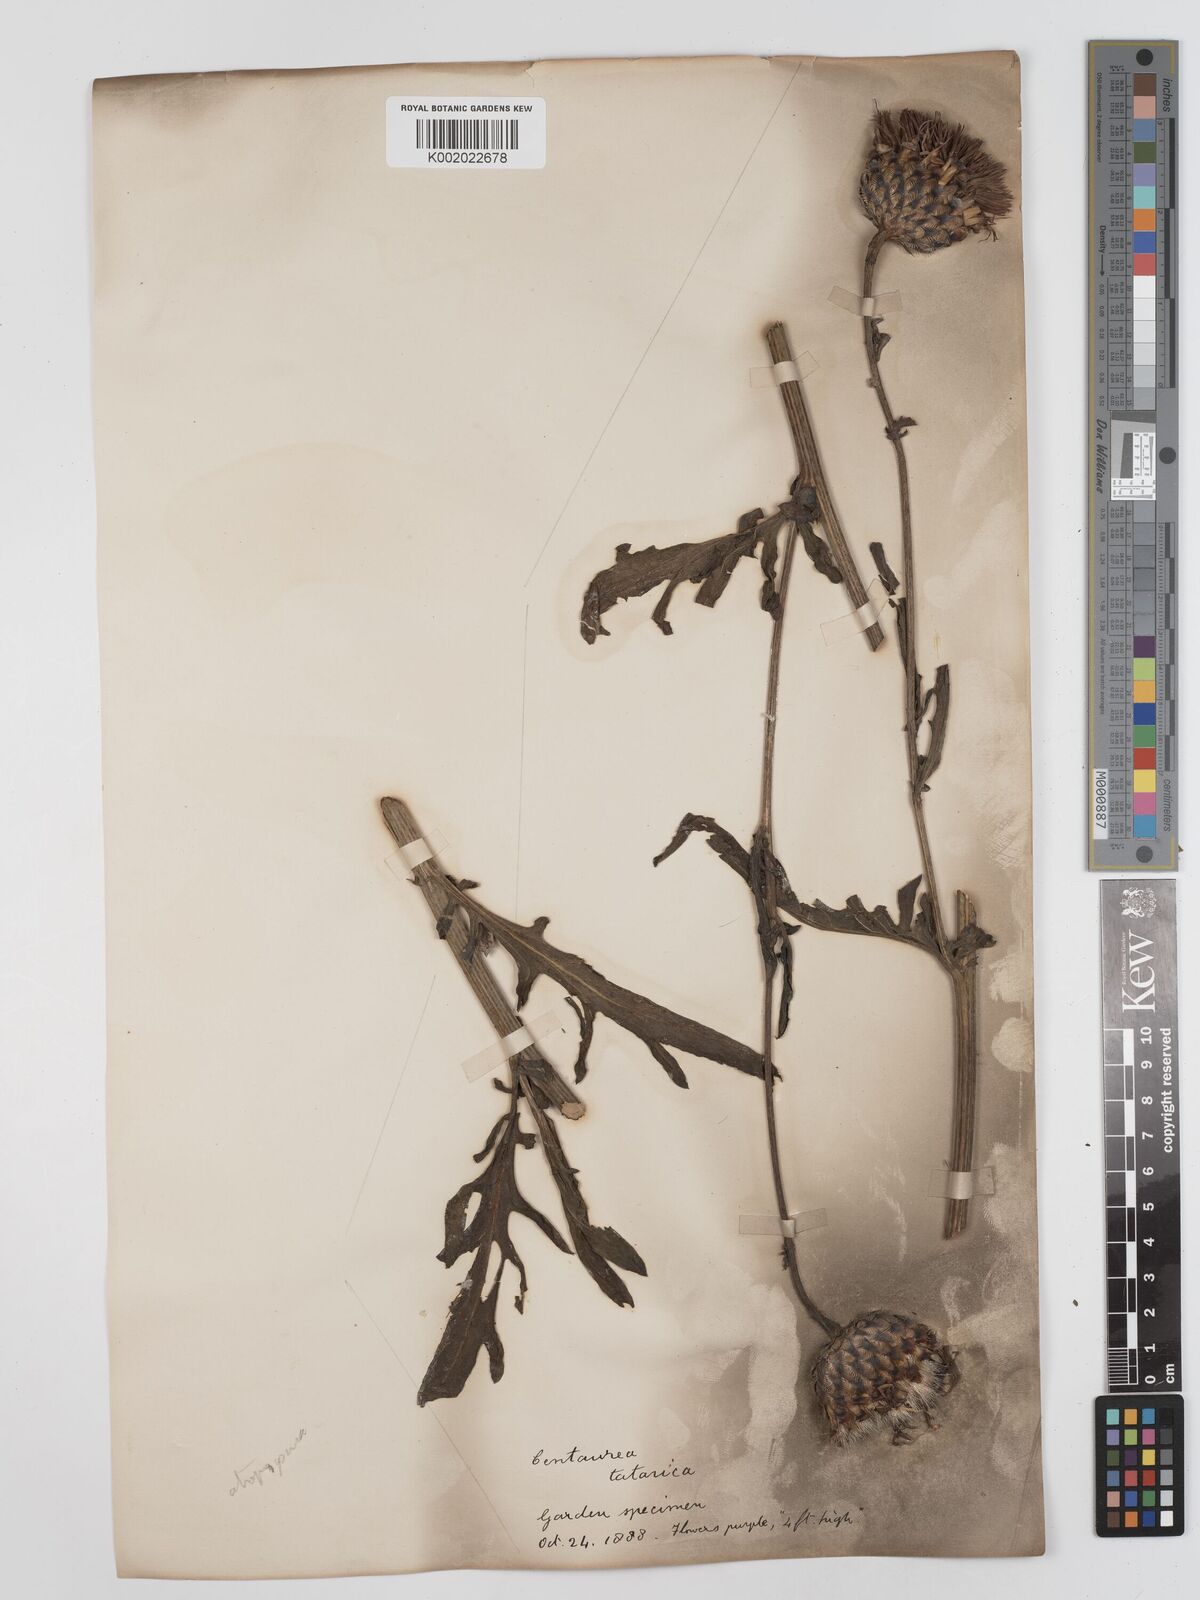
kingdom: Plantae
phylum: Tracheophyta
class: Magnoliopsida
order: Asterales
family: Asteraceae
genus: Centaurea
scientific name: Centaurea calocephala
